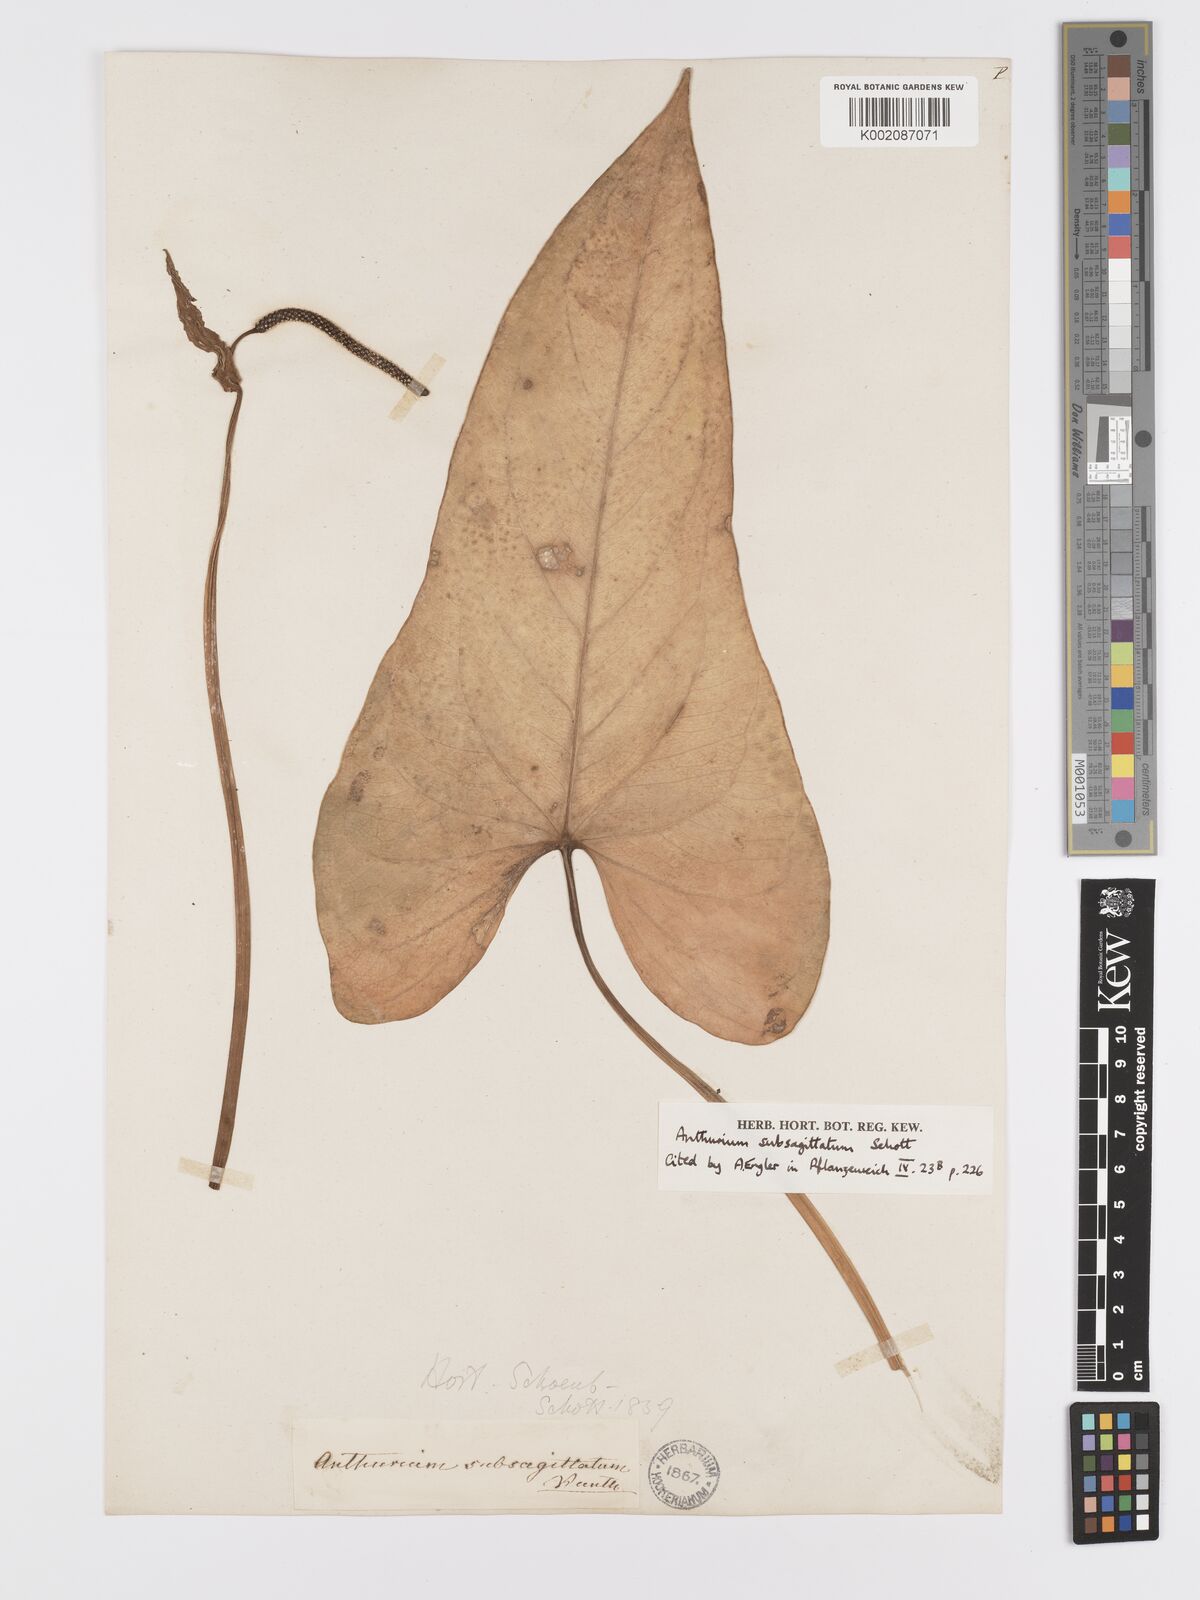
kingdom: Plantae
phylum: Tracheophyta
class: Liliopsida
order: Alismatales
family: Araceae
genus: Anthurium
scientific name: Anthurium subsagittatum
